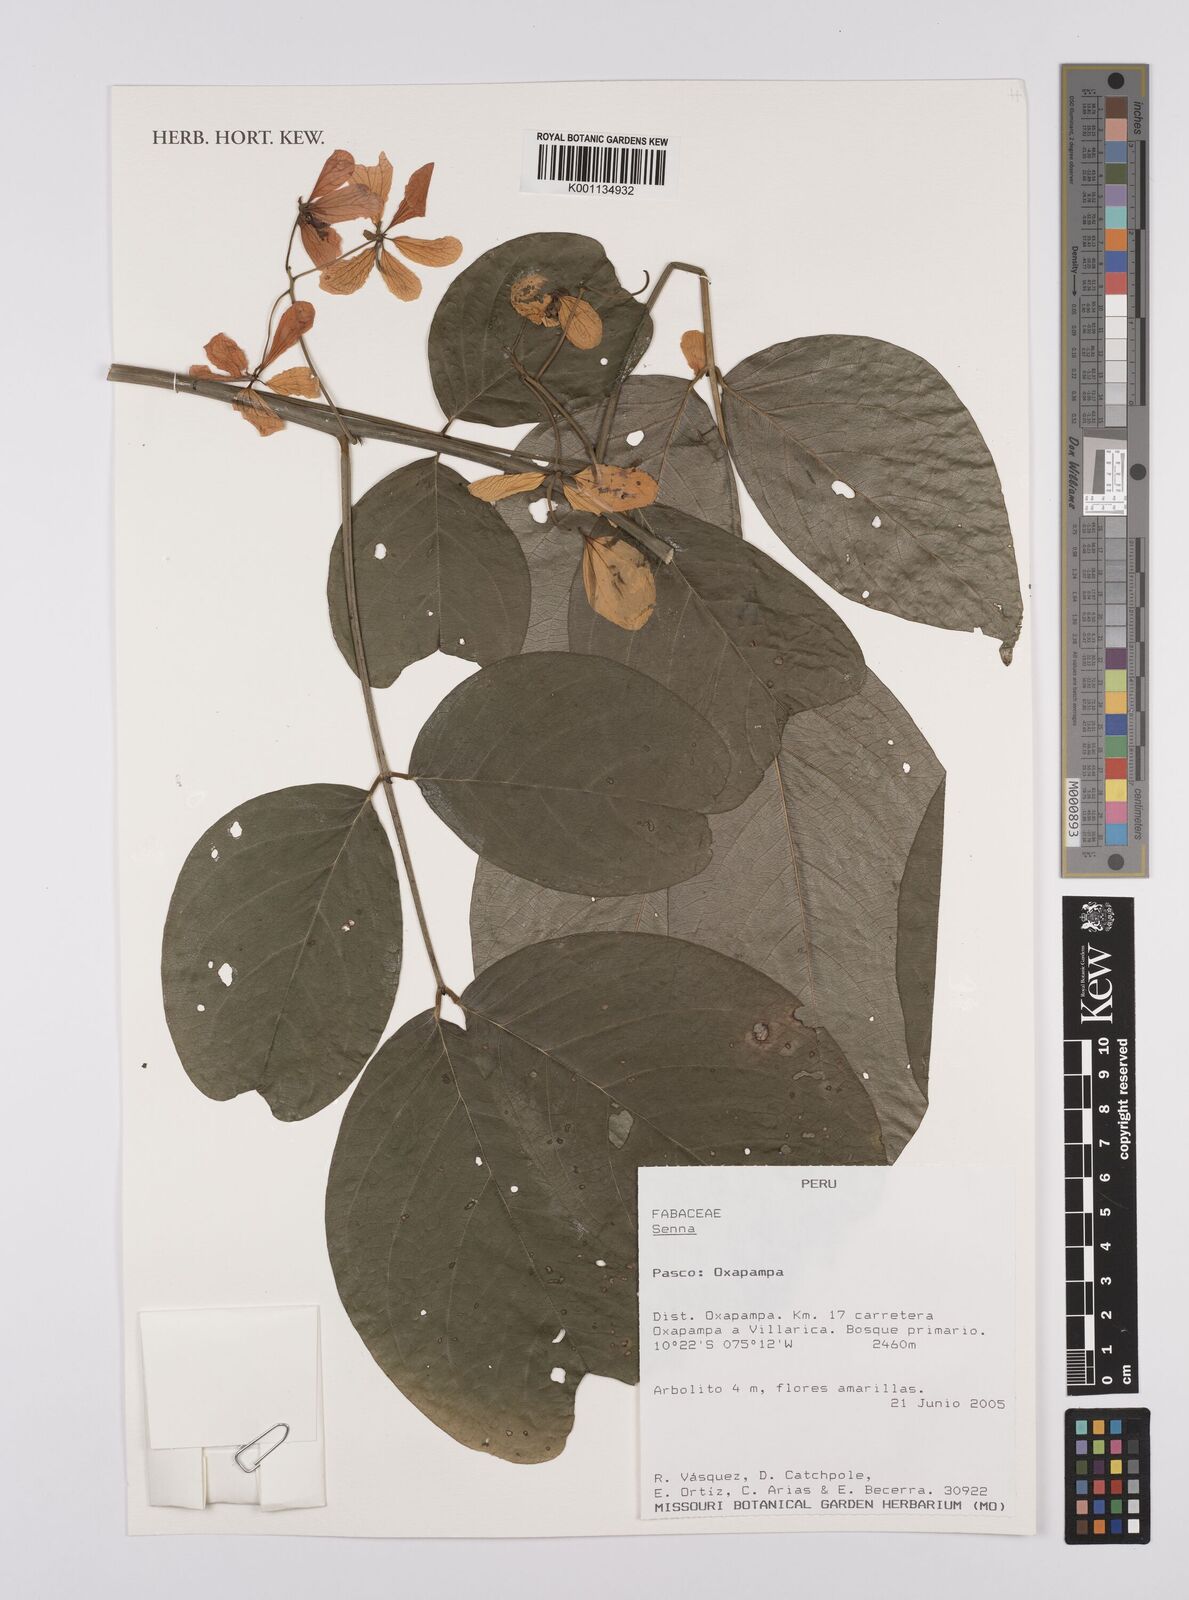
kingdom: Plantae
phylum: Tracheophyta
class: Magnoliopsida
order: Fabales
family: Fabaceae
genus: Senna
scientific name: Senna
